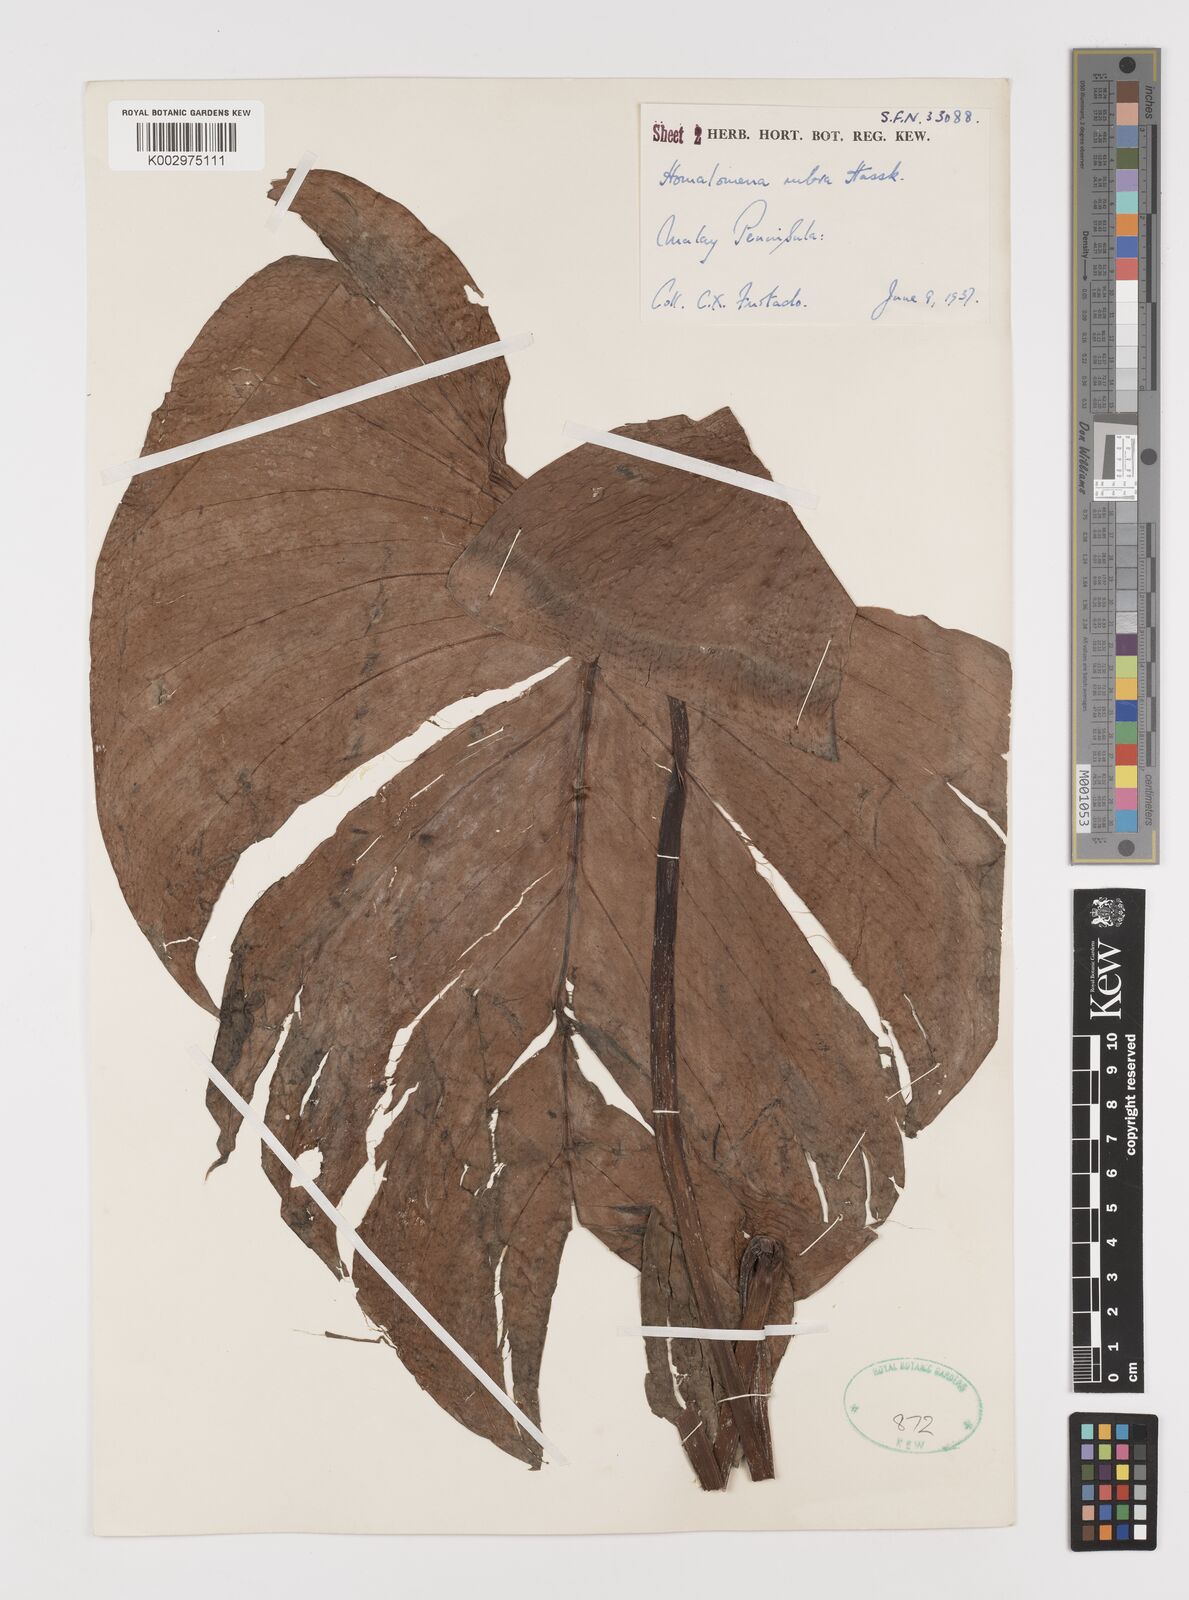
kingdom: Plantae
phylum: Tracheophyta
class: Liliopsida
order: Alismatales
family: Araceae
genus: Homalomena
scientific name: Homalomena pendula
